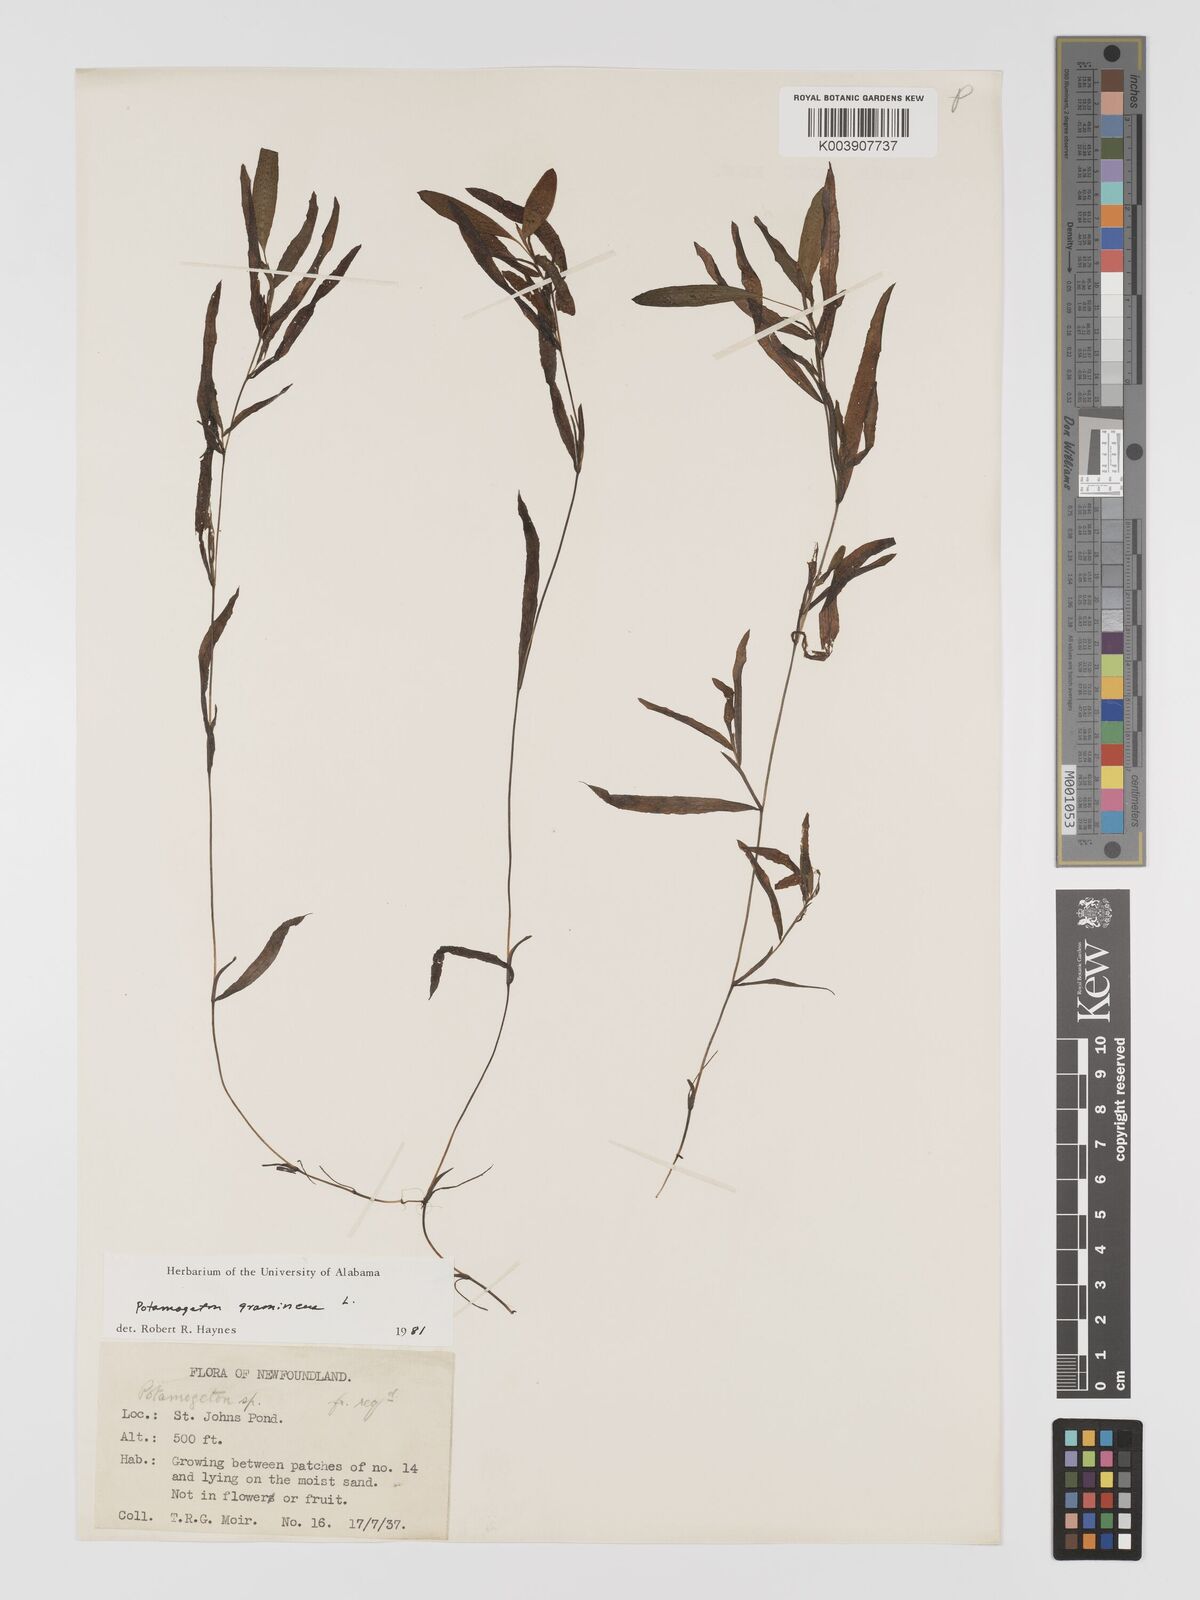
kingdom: Plantae
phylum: Tracheophyta
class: Liliopsida
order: Alismatales
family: Potamogetonaceae
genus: Potamogeton
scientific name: Potamogeton gramineus
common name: Various-leaved pondweed
